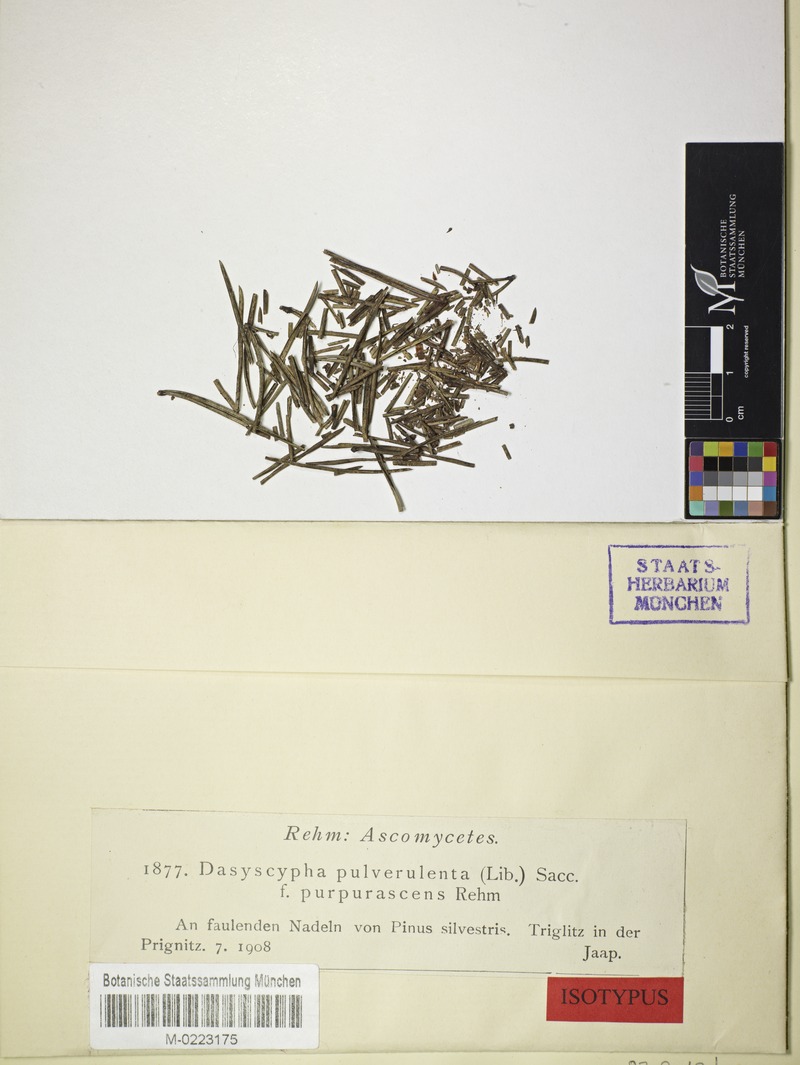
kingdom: Fungi
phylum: Ascomycota
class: Leotiomycetes
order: Helotiales
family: Lachnaceae
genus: Lachnellula
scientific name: Lachnellula pulverulenta
